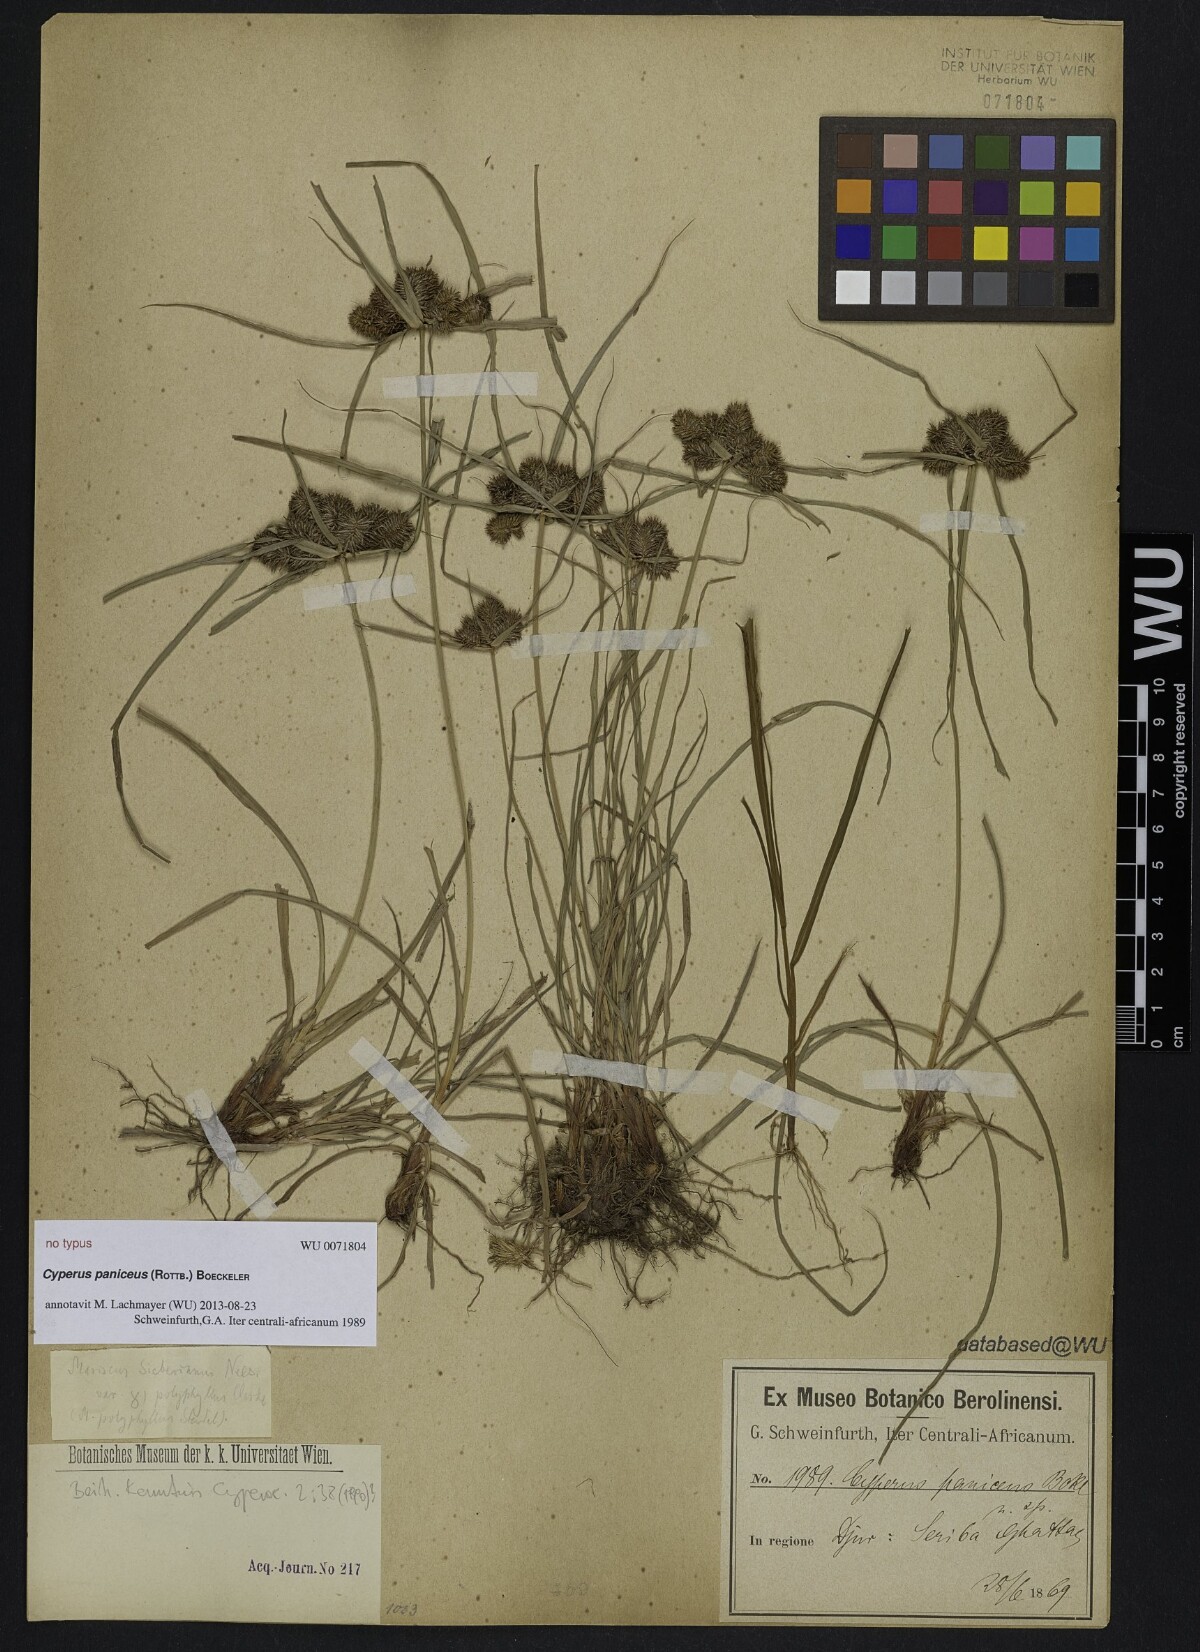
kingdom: Plantae
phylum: Tracheophyta
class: Liliopsida
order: Poales
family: Cyperaceae
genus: Cyperus
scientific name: Cyperus paniceus
